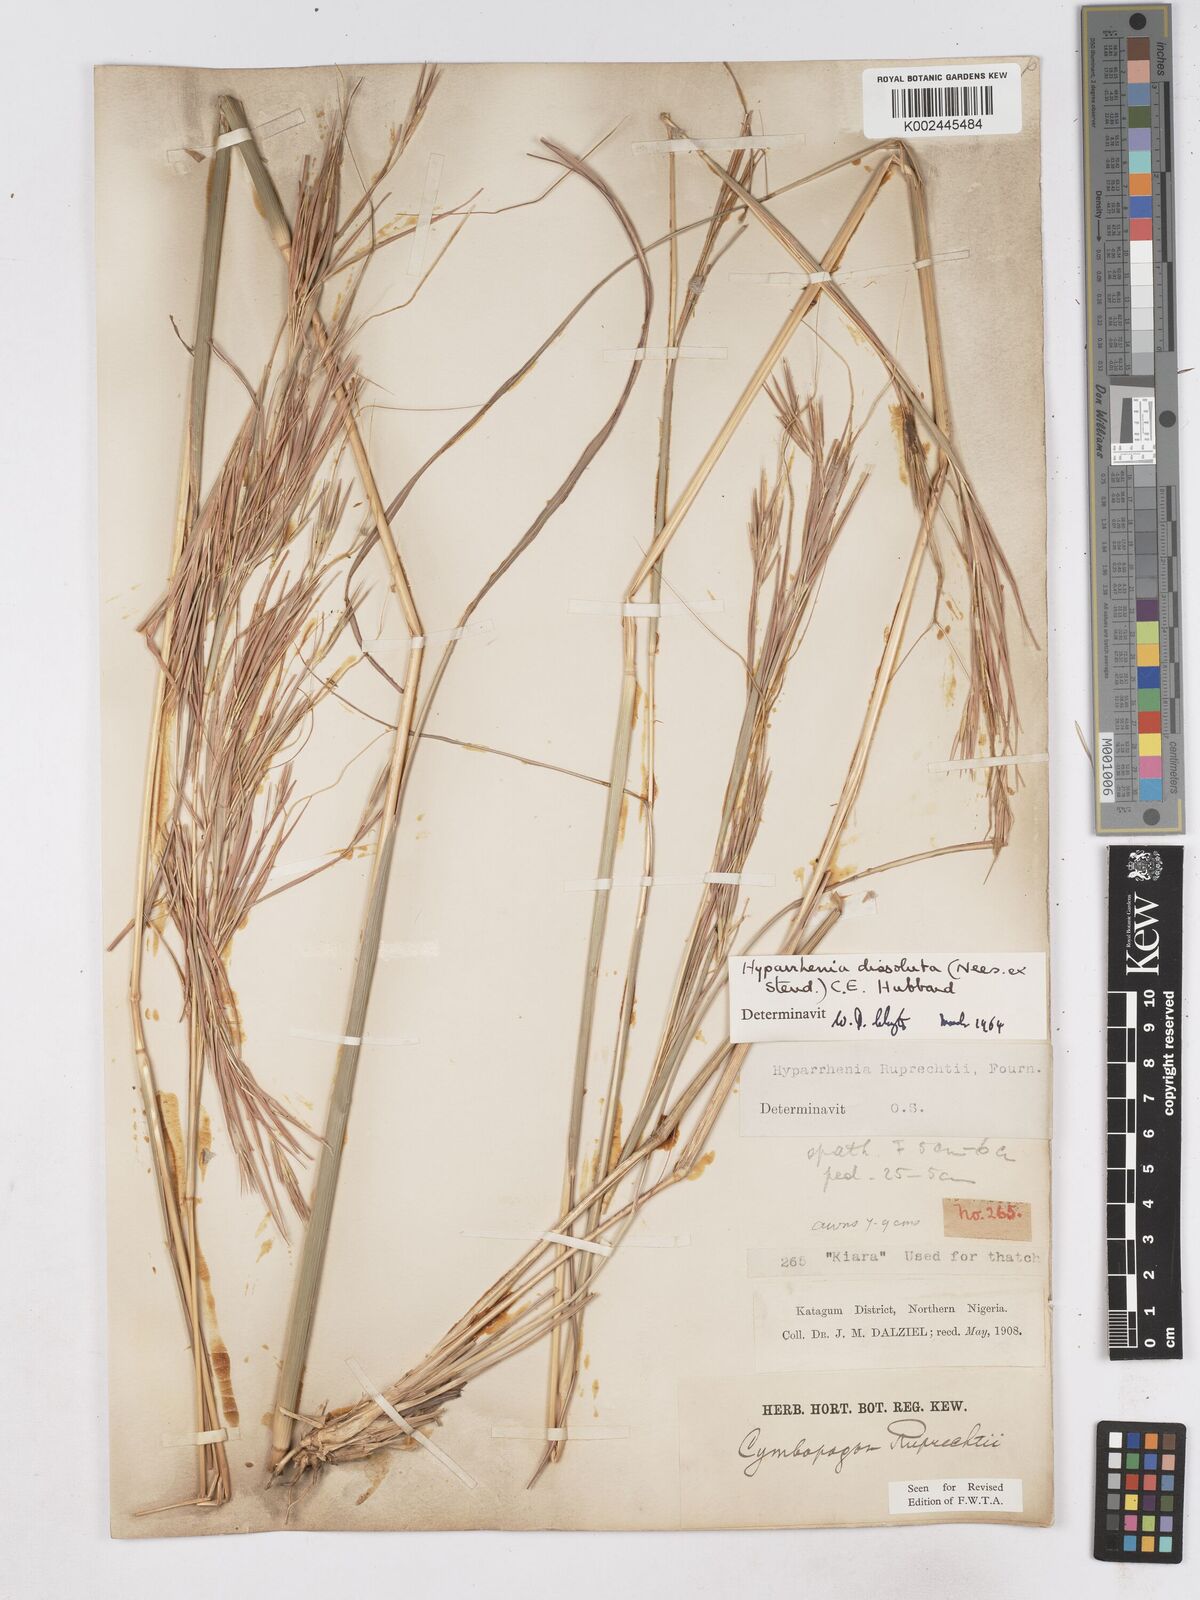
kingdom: Plantae
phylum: Tracheophyta
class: Liliopsida
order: Poales
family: Poaceae
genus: Hyperthelia
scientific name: Hyperthelia dissoluta
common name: Yellow thatching grass
